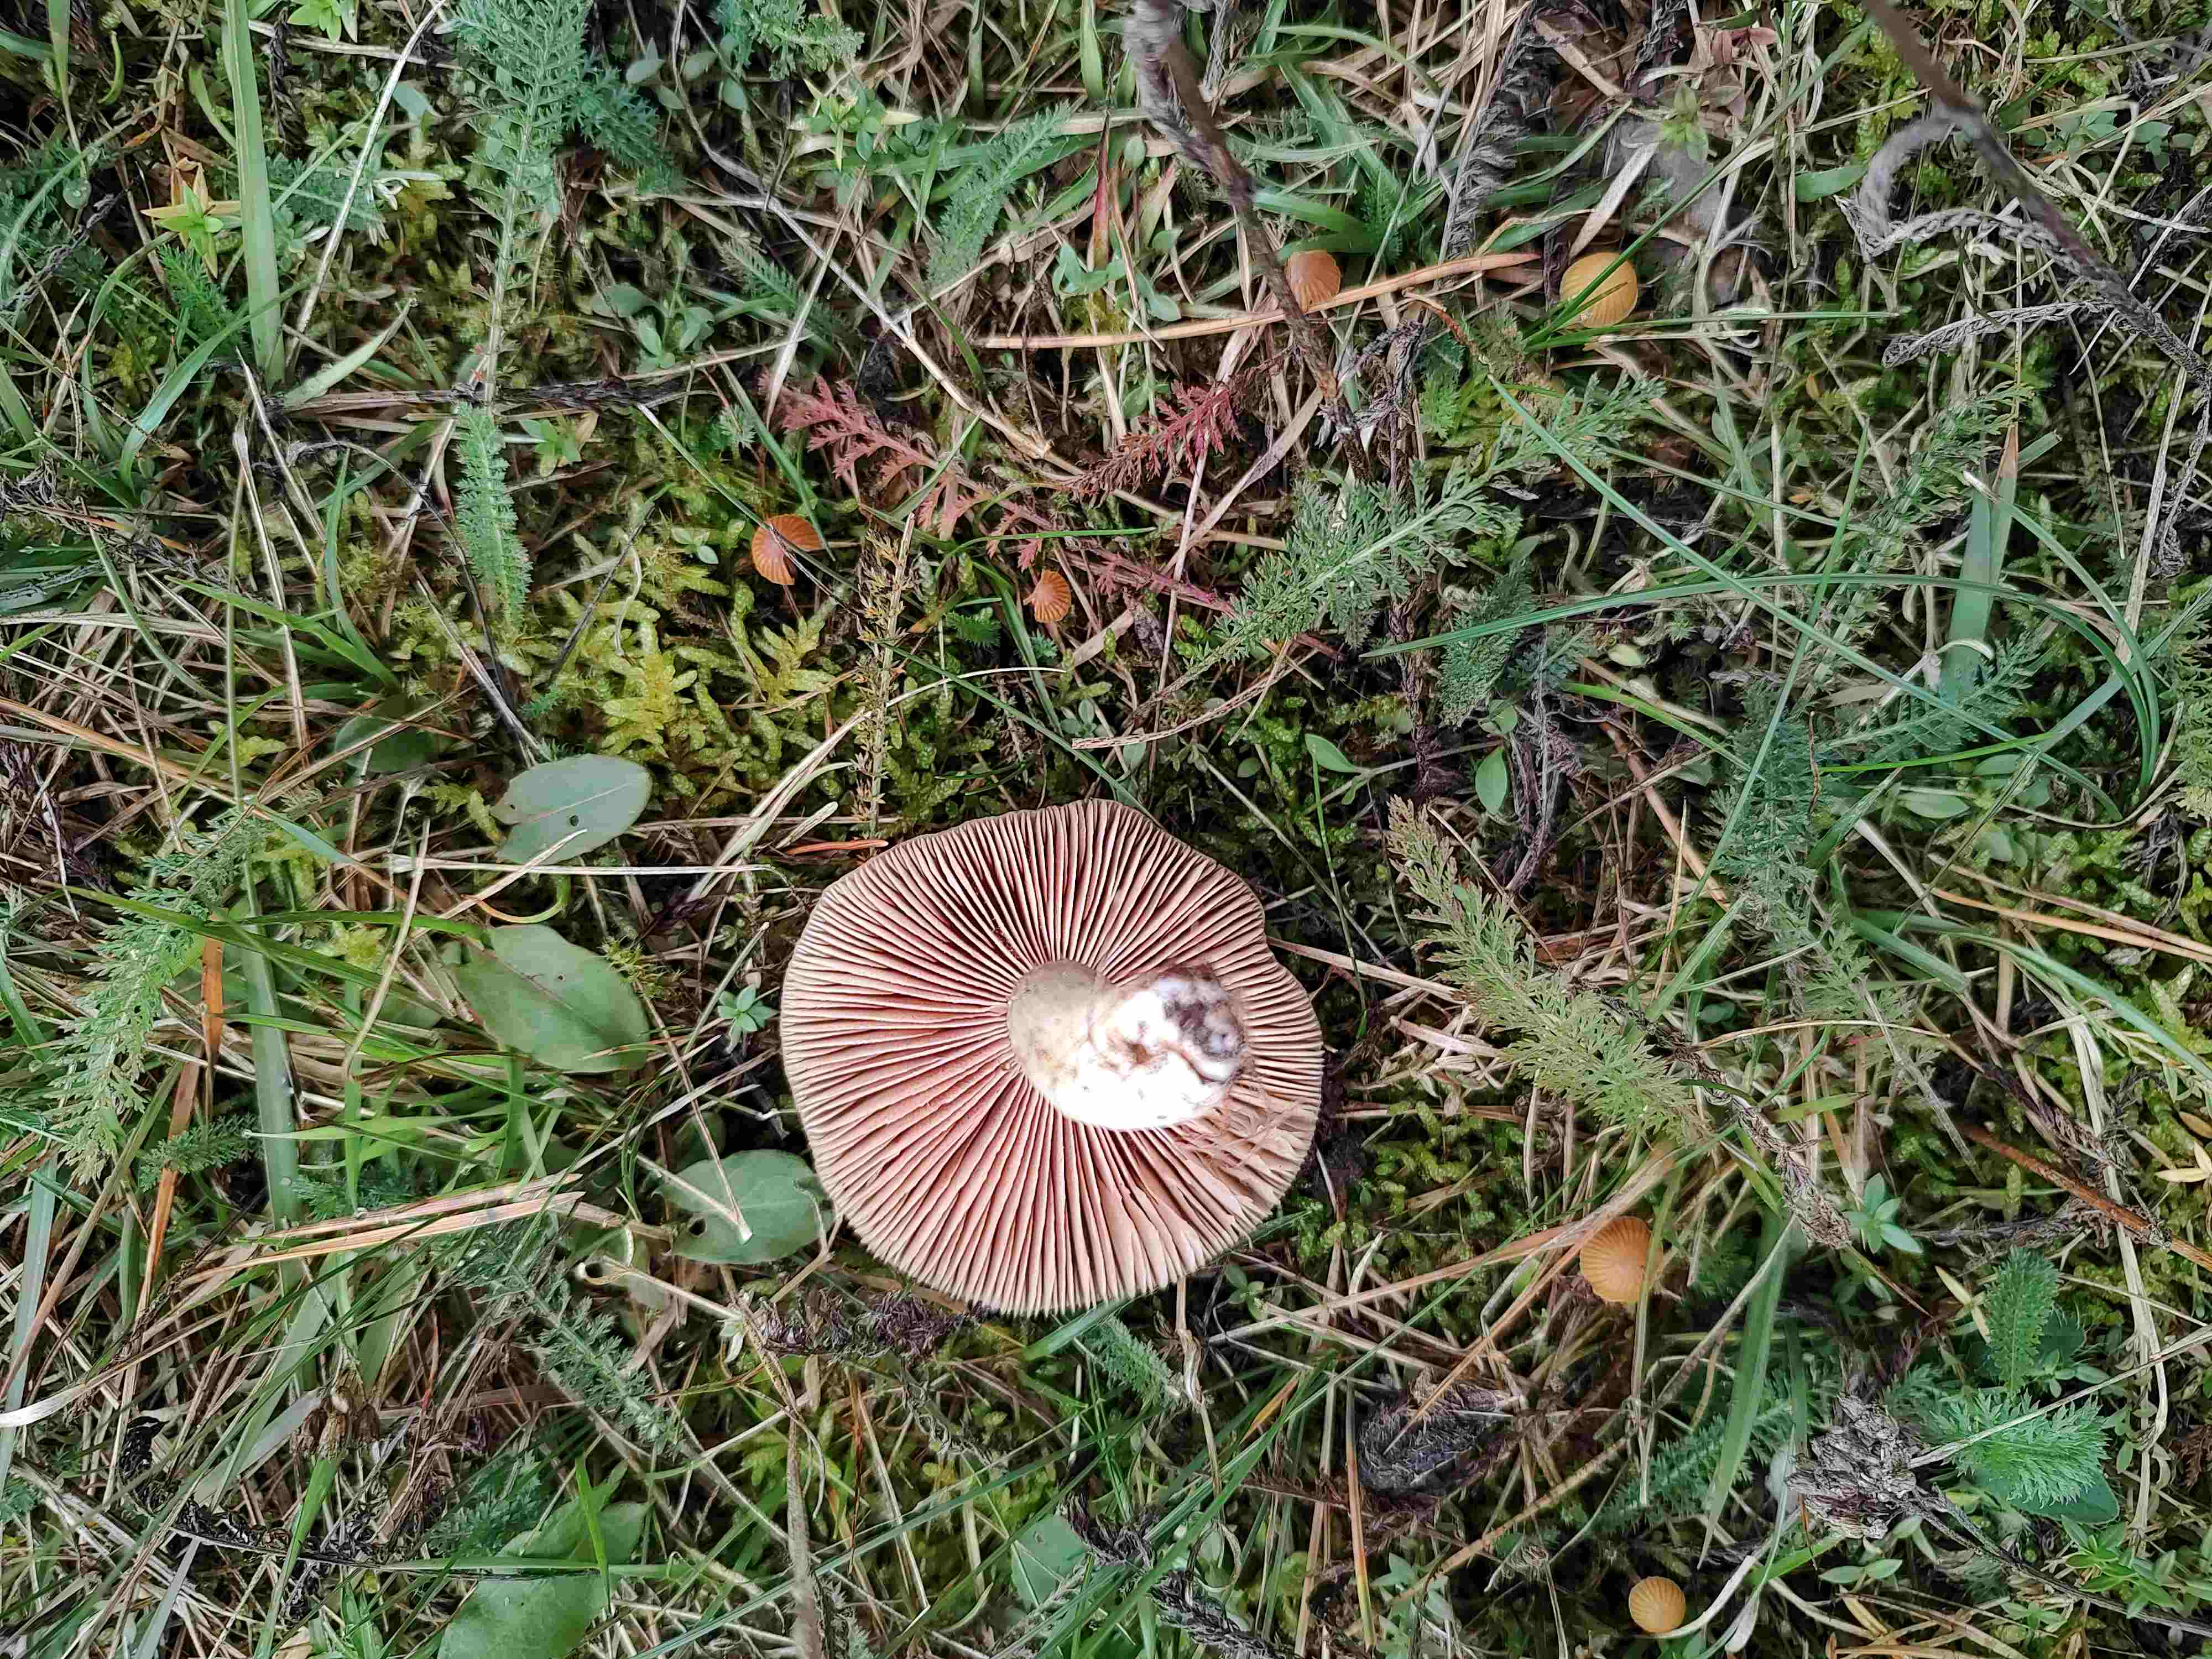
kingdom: Fungi
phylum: Basidiomycota
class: Agaricomycetes
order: Agaricales
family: Entolomataceae
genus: Entoloma
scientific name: Entoloma prunuloides
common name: mel-rødblad
